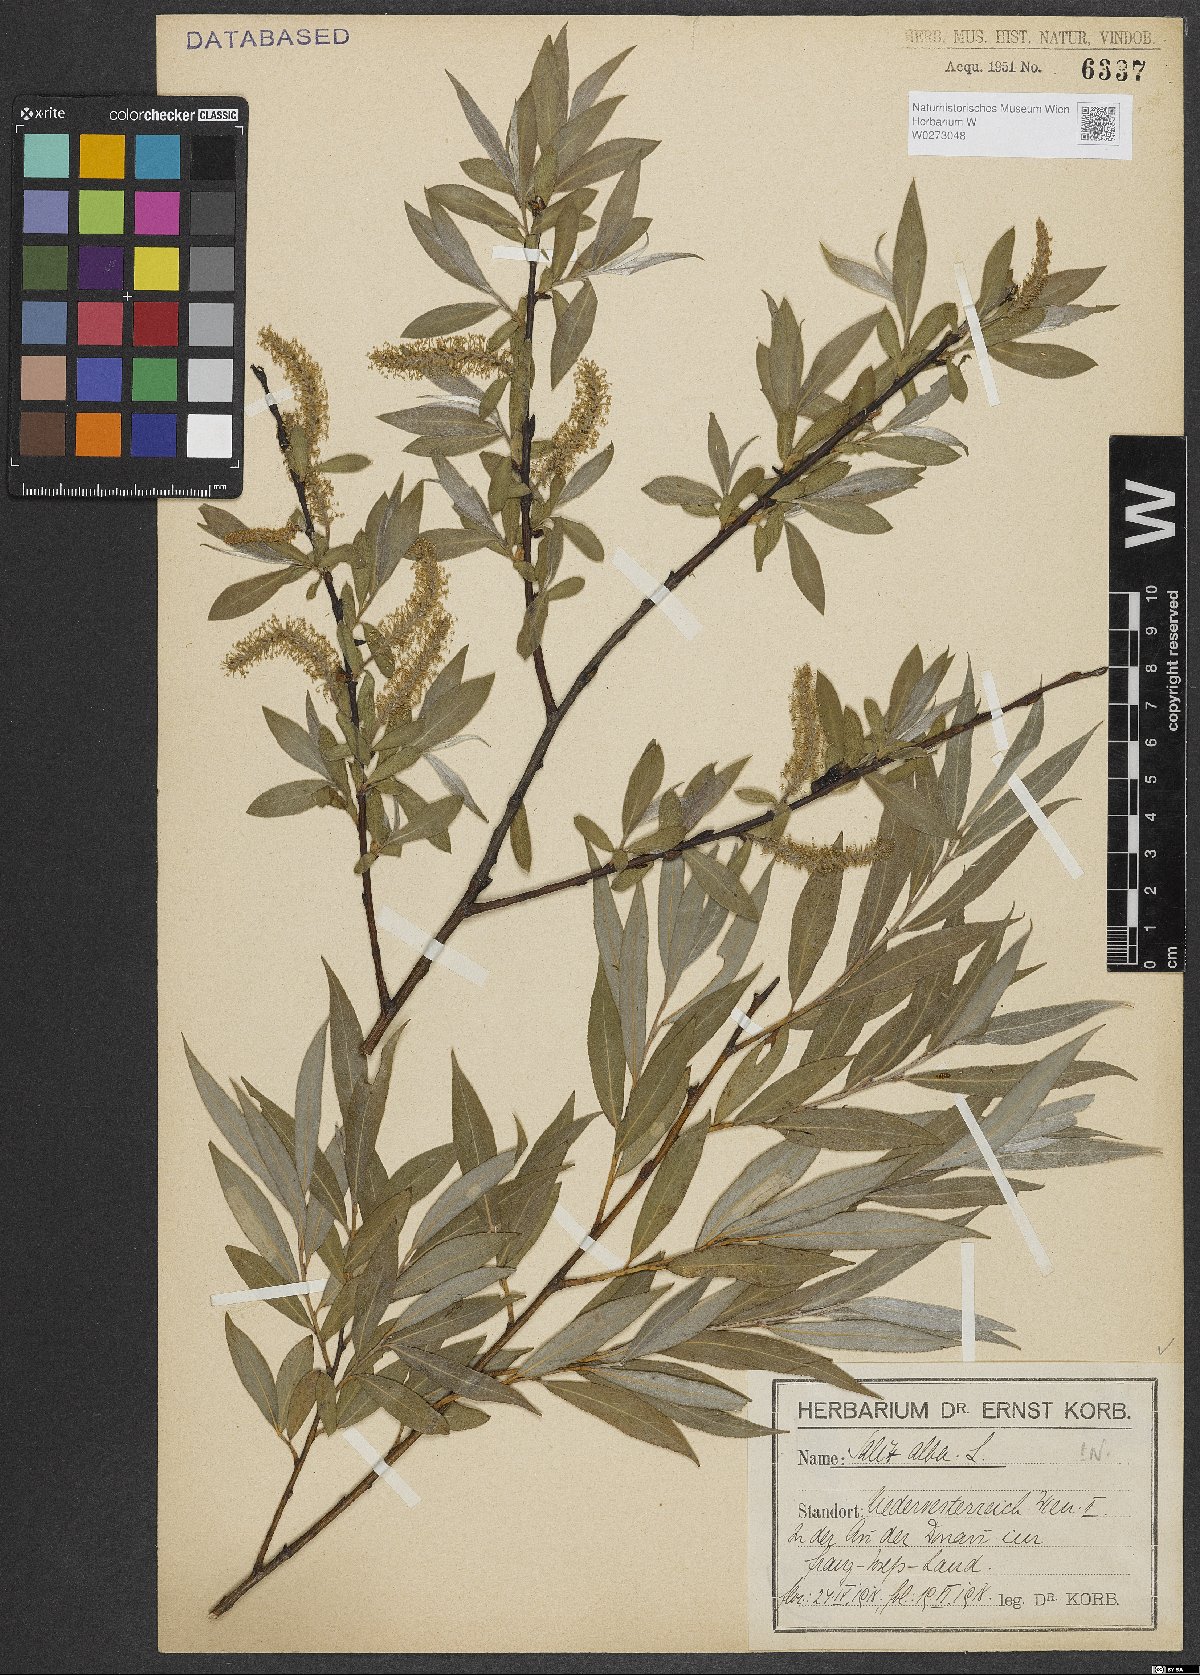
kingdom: Plantae
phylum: Tracheophyta
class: Magnoliopsida
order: Malpighiales
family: Salicaceae
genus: Salix
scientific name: Salix alba
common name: White willow
